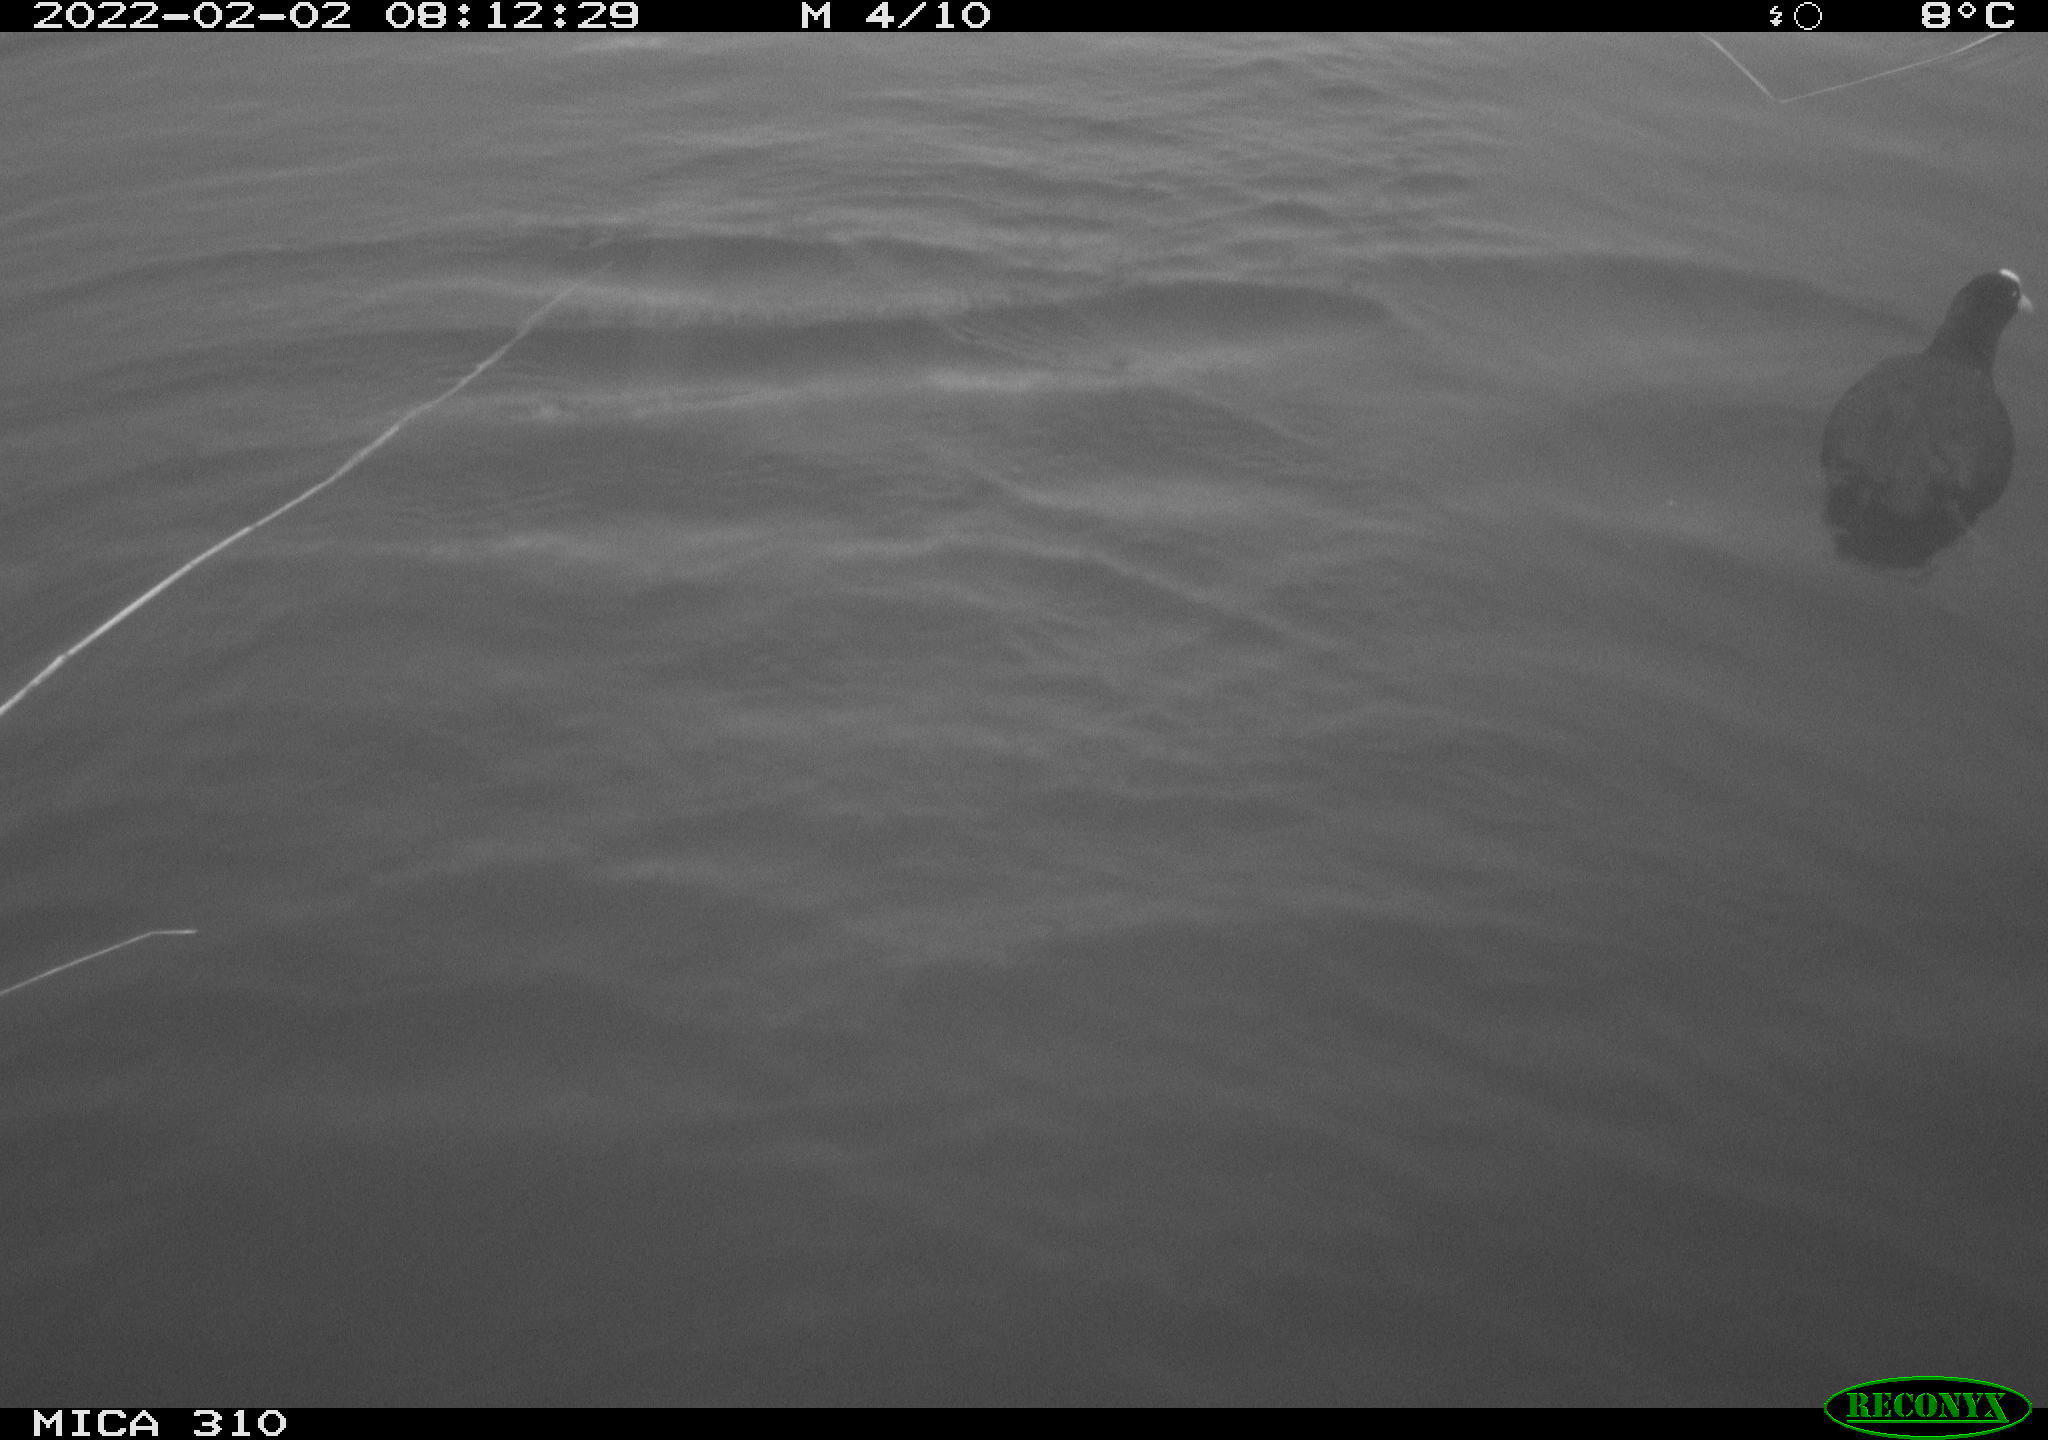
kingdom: Animalia
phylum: Chordata
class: Aves
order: Gruiformes
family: Rallidae
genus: Fulica
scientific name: Fulica atra
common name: Eurasian coot
